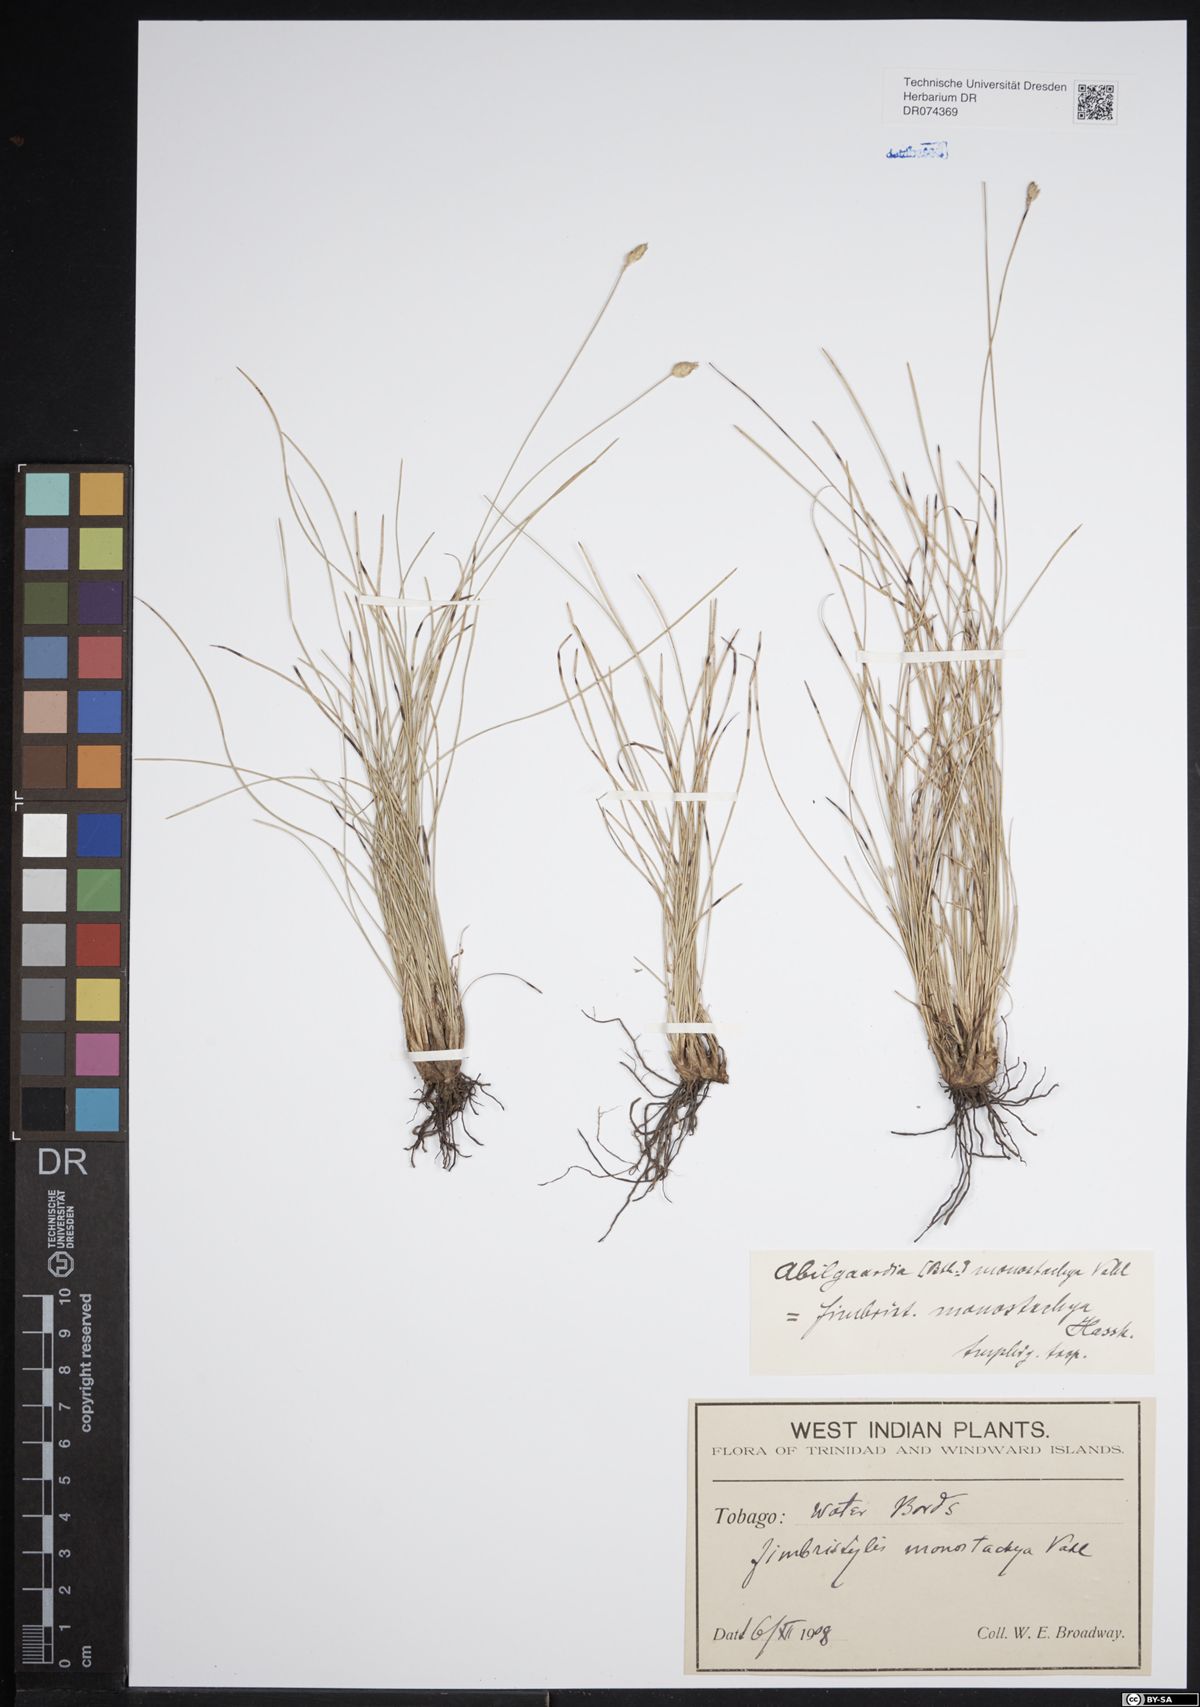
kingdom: Plantae
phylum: Tracheophyta
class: Liliopsida
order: Poales
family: Cyperaceae
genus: Abildgaardia
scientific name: Abildgaardia ovata
